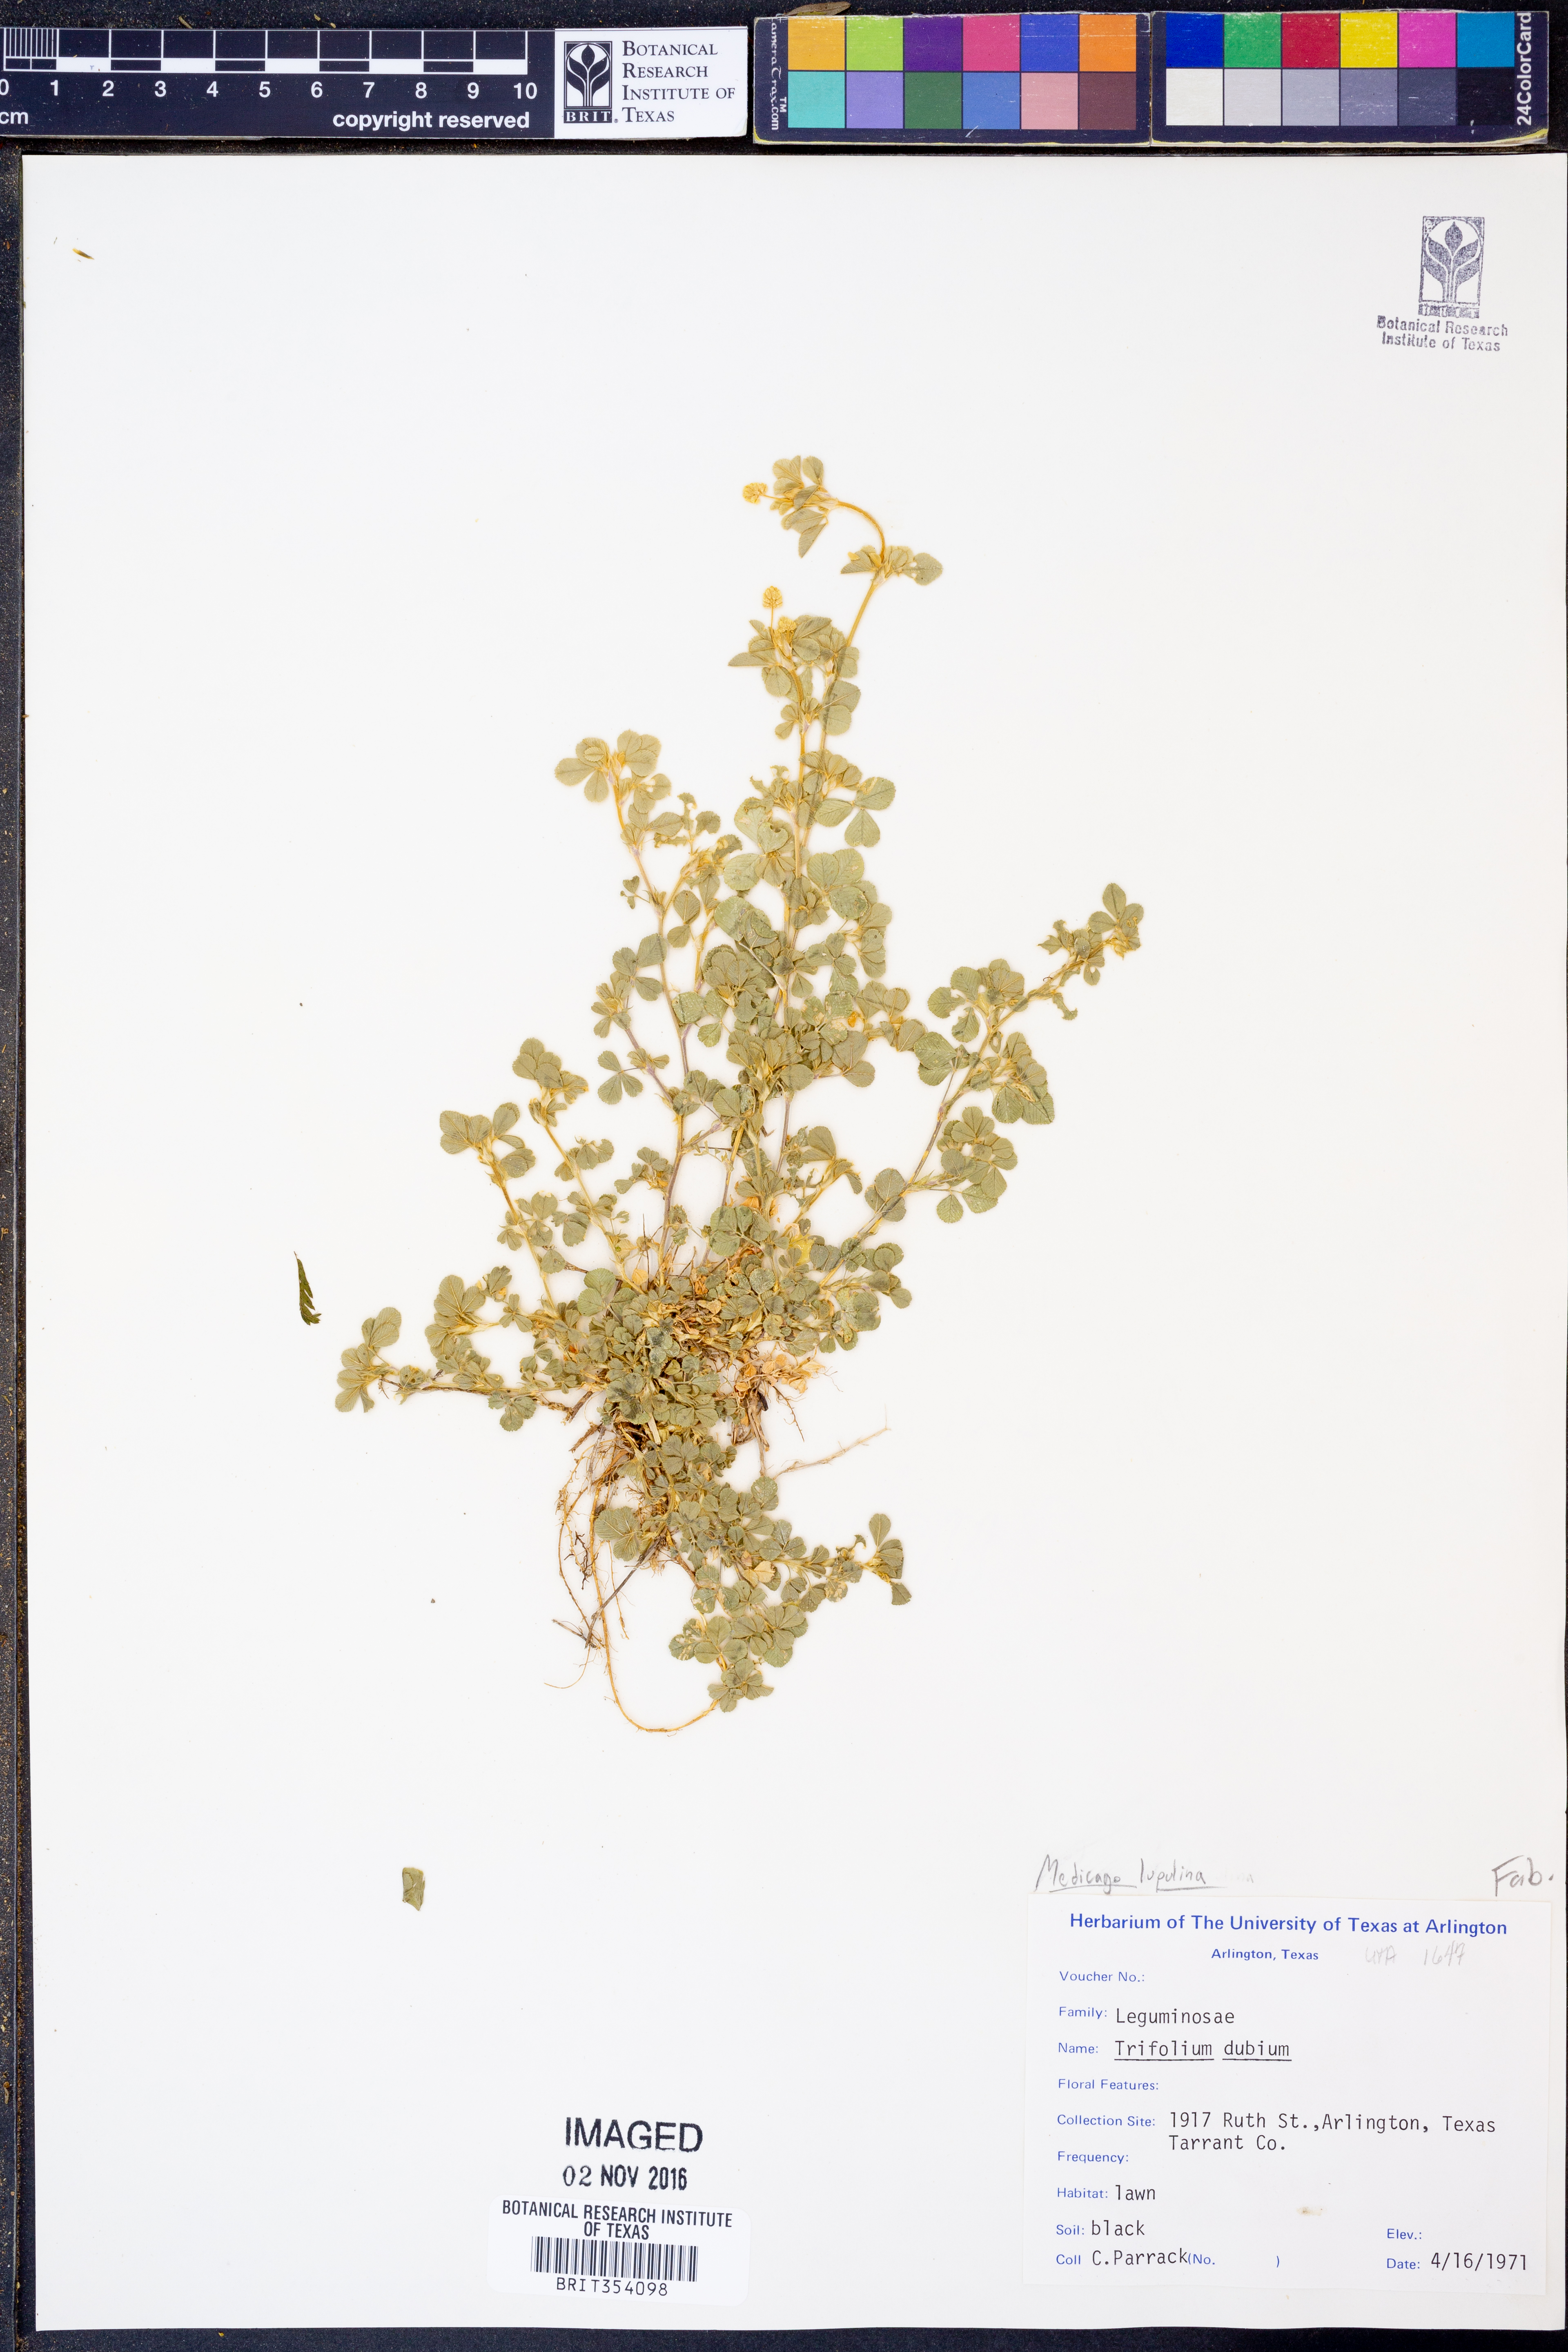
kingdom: Plantae
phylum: Tracheophyta
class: Magnoliopsida
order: Fabales
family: Fabaceae
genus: Medicago
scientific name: Medicago lupulina
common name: Black medick
